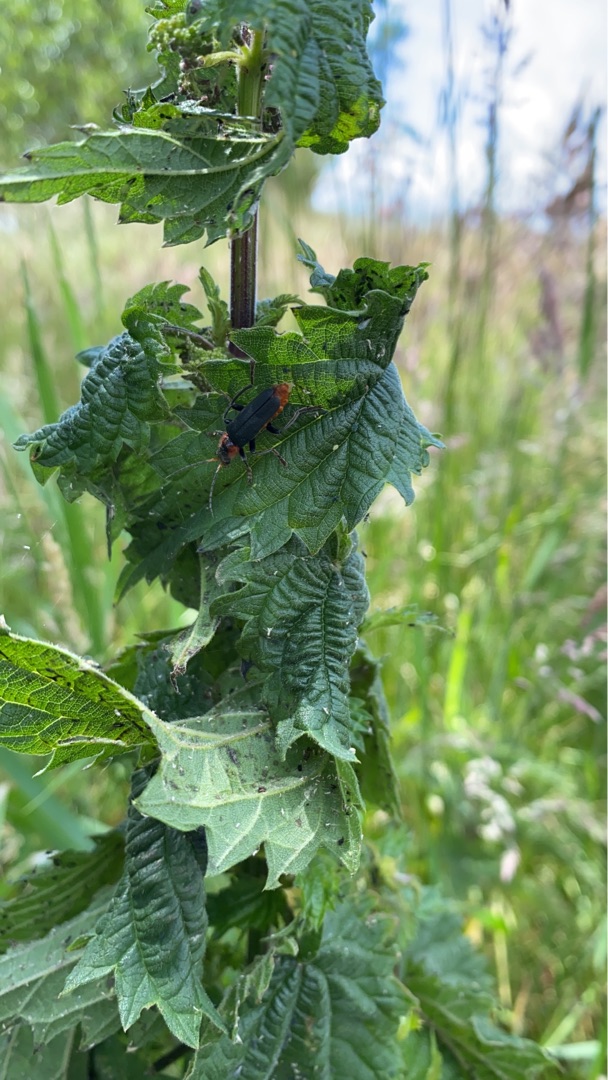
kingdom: Animalia
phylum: Arthropoda
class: Insecta
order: Coleoptera
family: Cantharidae
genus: Cantharis
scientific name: Cantharis fusca
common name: Stor blødvinge
